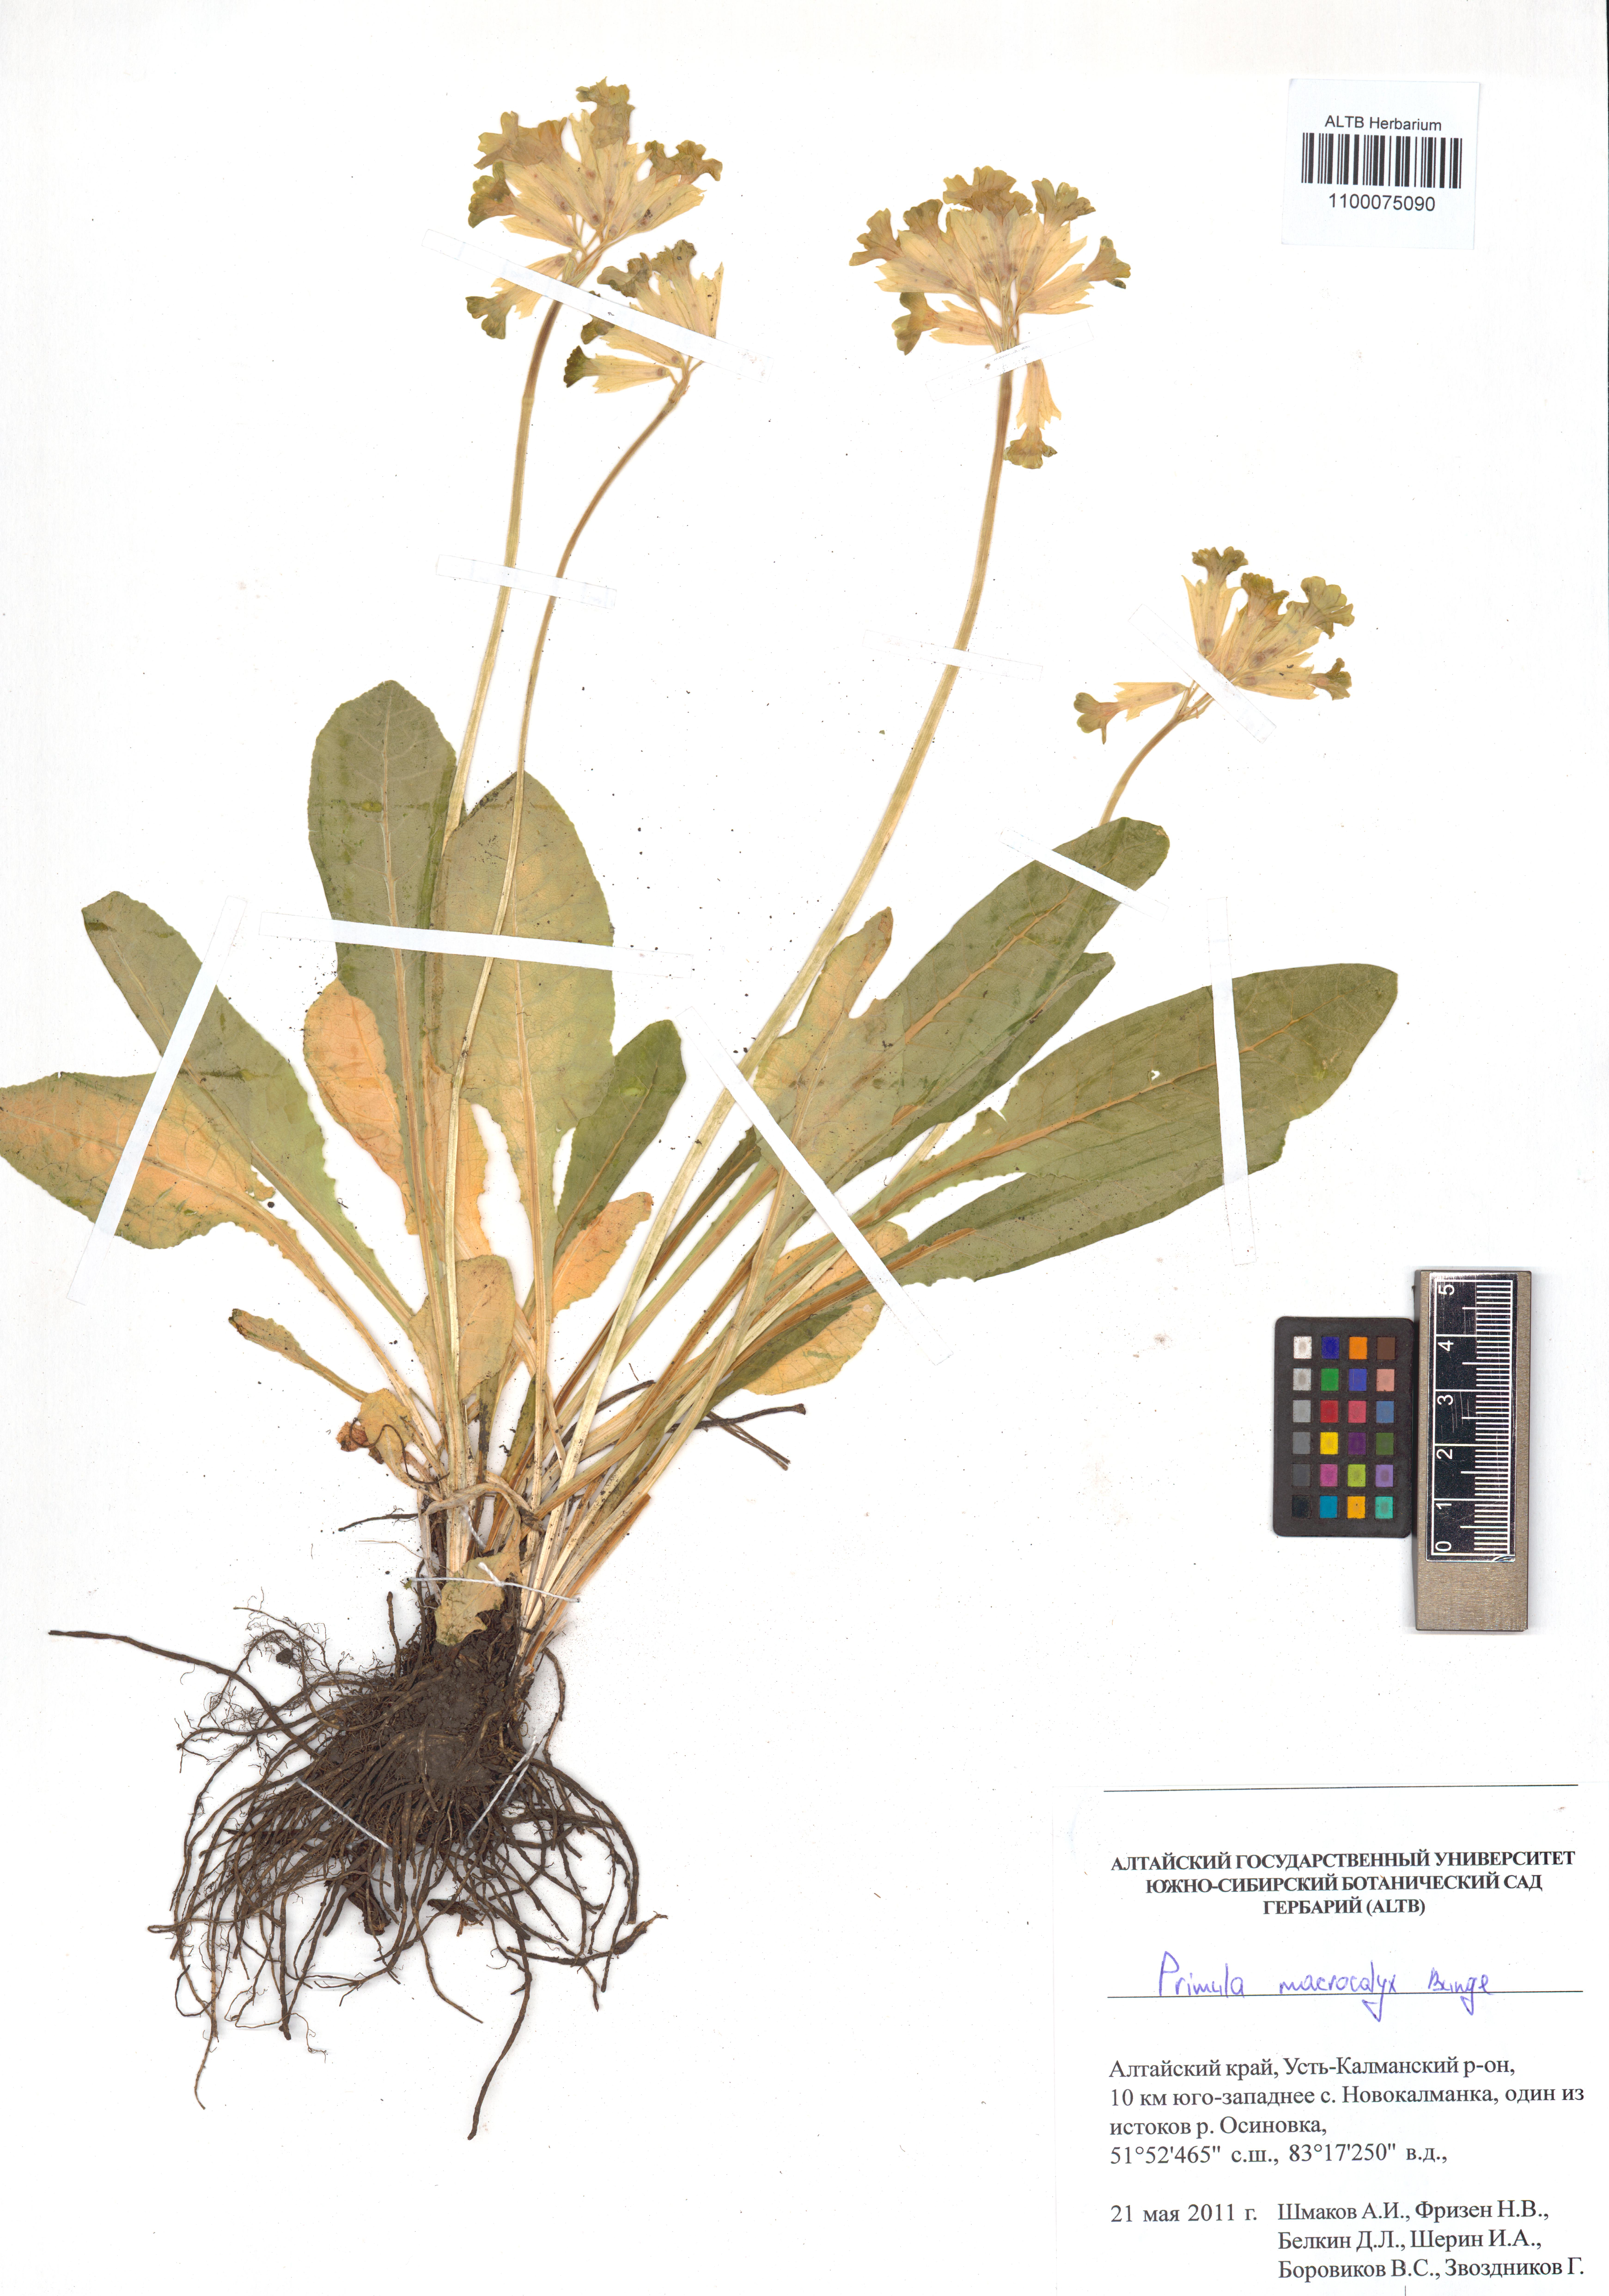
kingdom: Plantae
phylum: Tracheophyta
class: Magnoliopsida
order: Ericales
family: Primulaceae
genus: Primula
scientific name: Primula veris
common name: Cowslip
